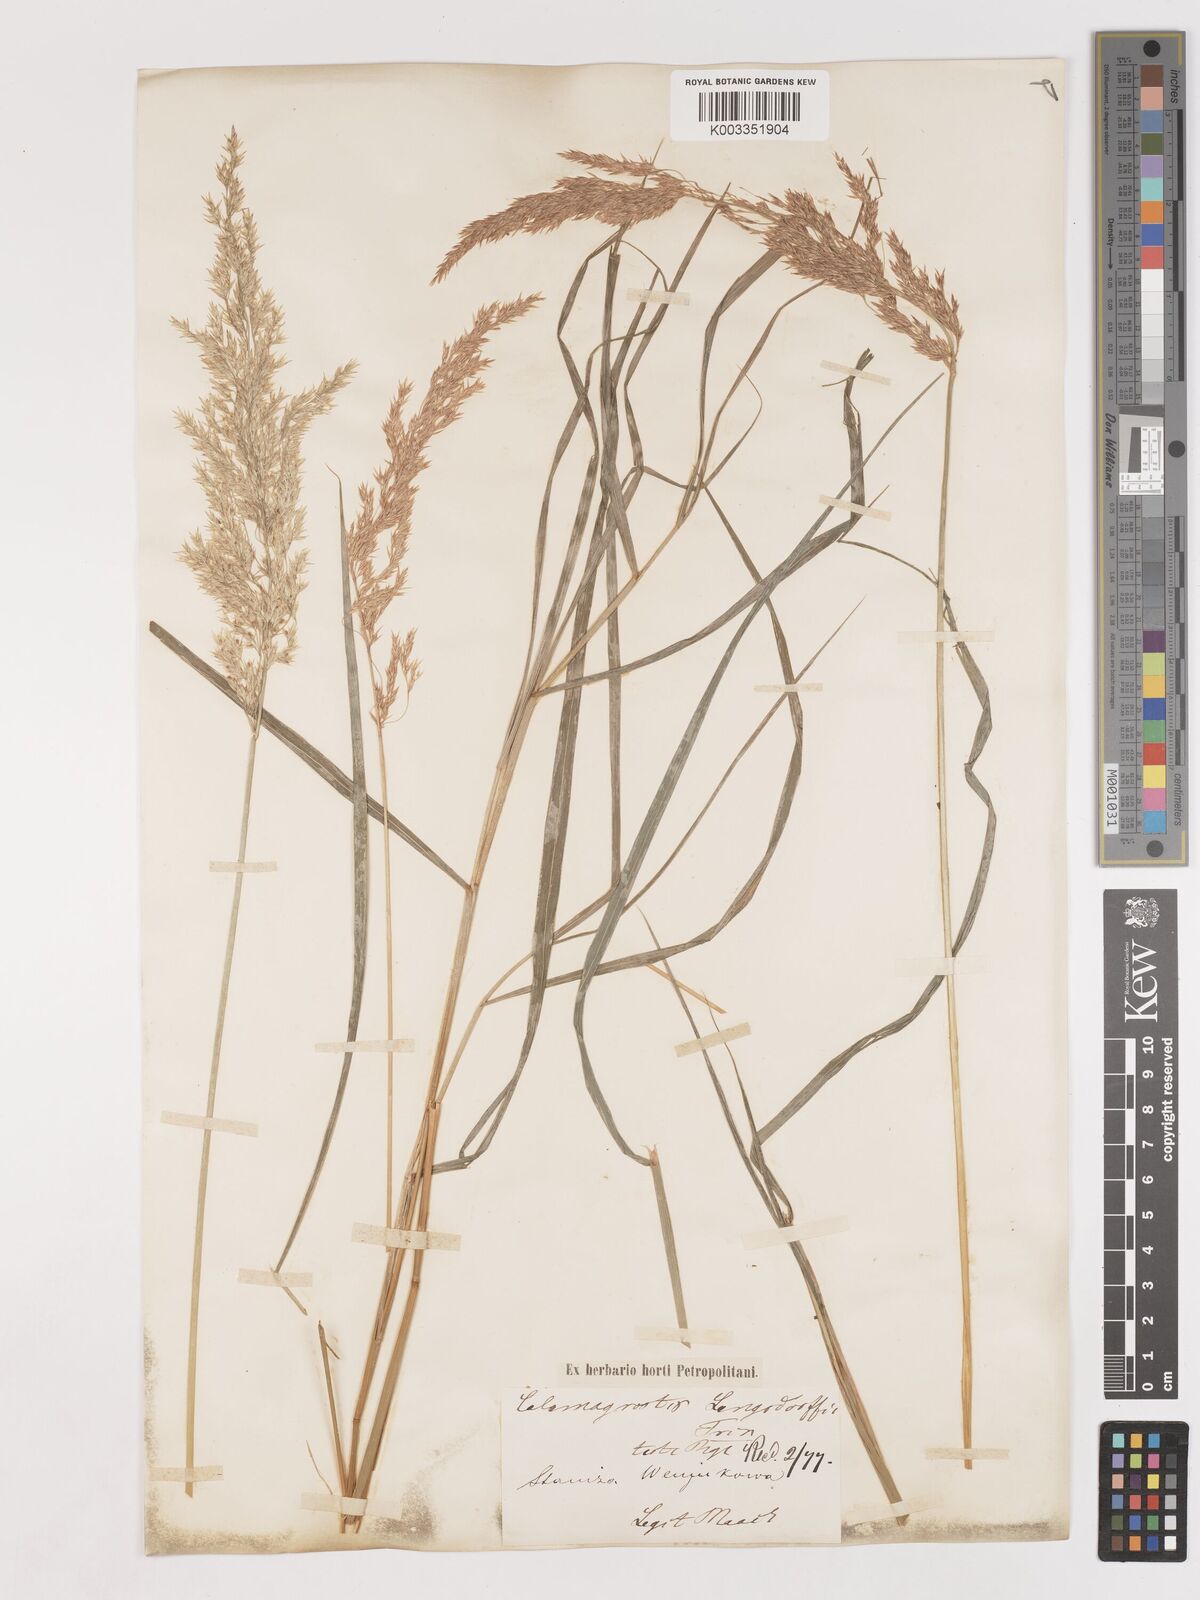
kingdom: Plantae
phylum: Tracheophyta
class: Liliopsida
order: Poales
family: Poaceae
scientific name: Poaceae
